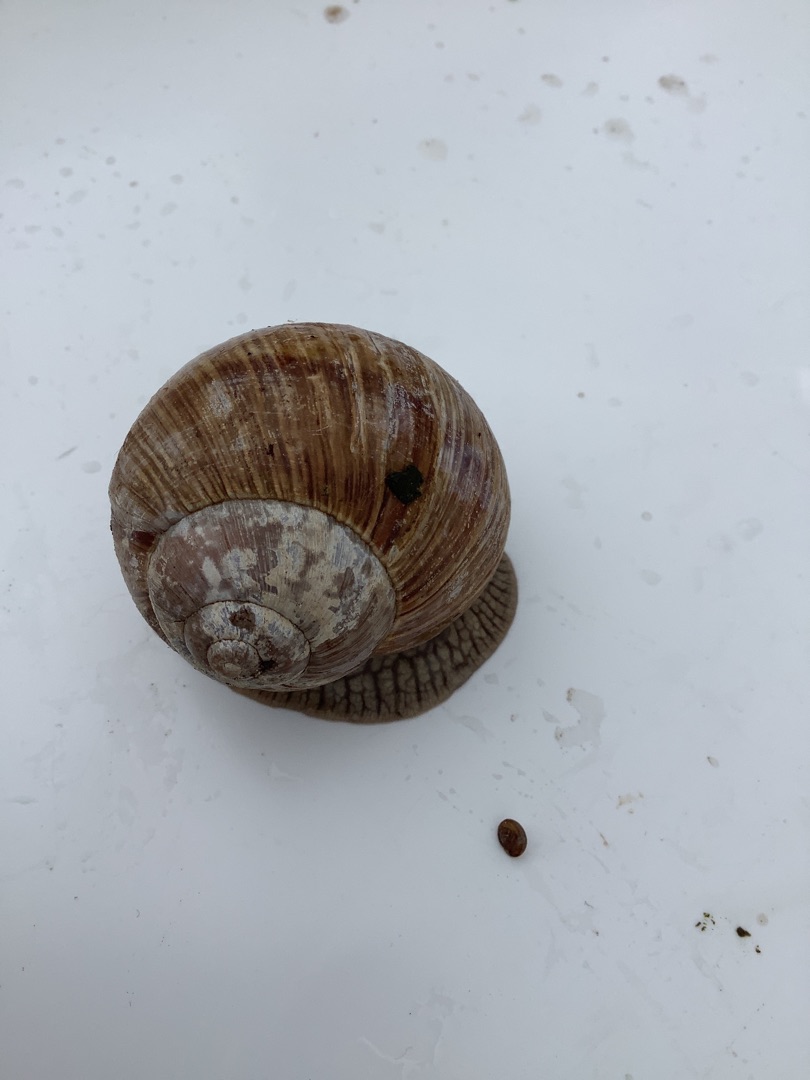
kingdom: Animalia
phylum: Mollusca
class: Gastropoda
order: Stylommatophora
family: Helicidae
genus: Helix
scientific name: Helix pomatia
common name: Vinbjergsnegl
